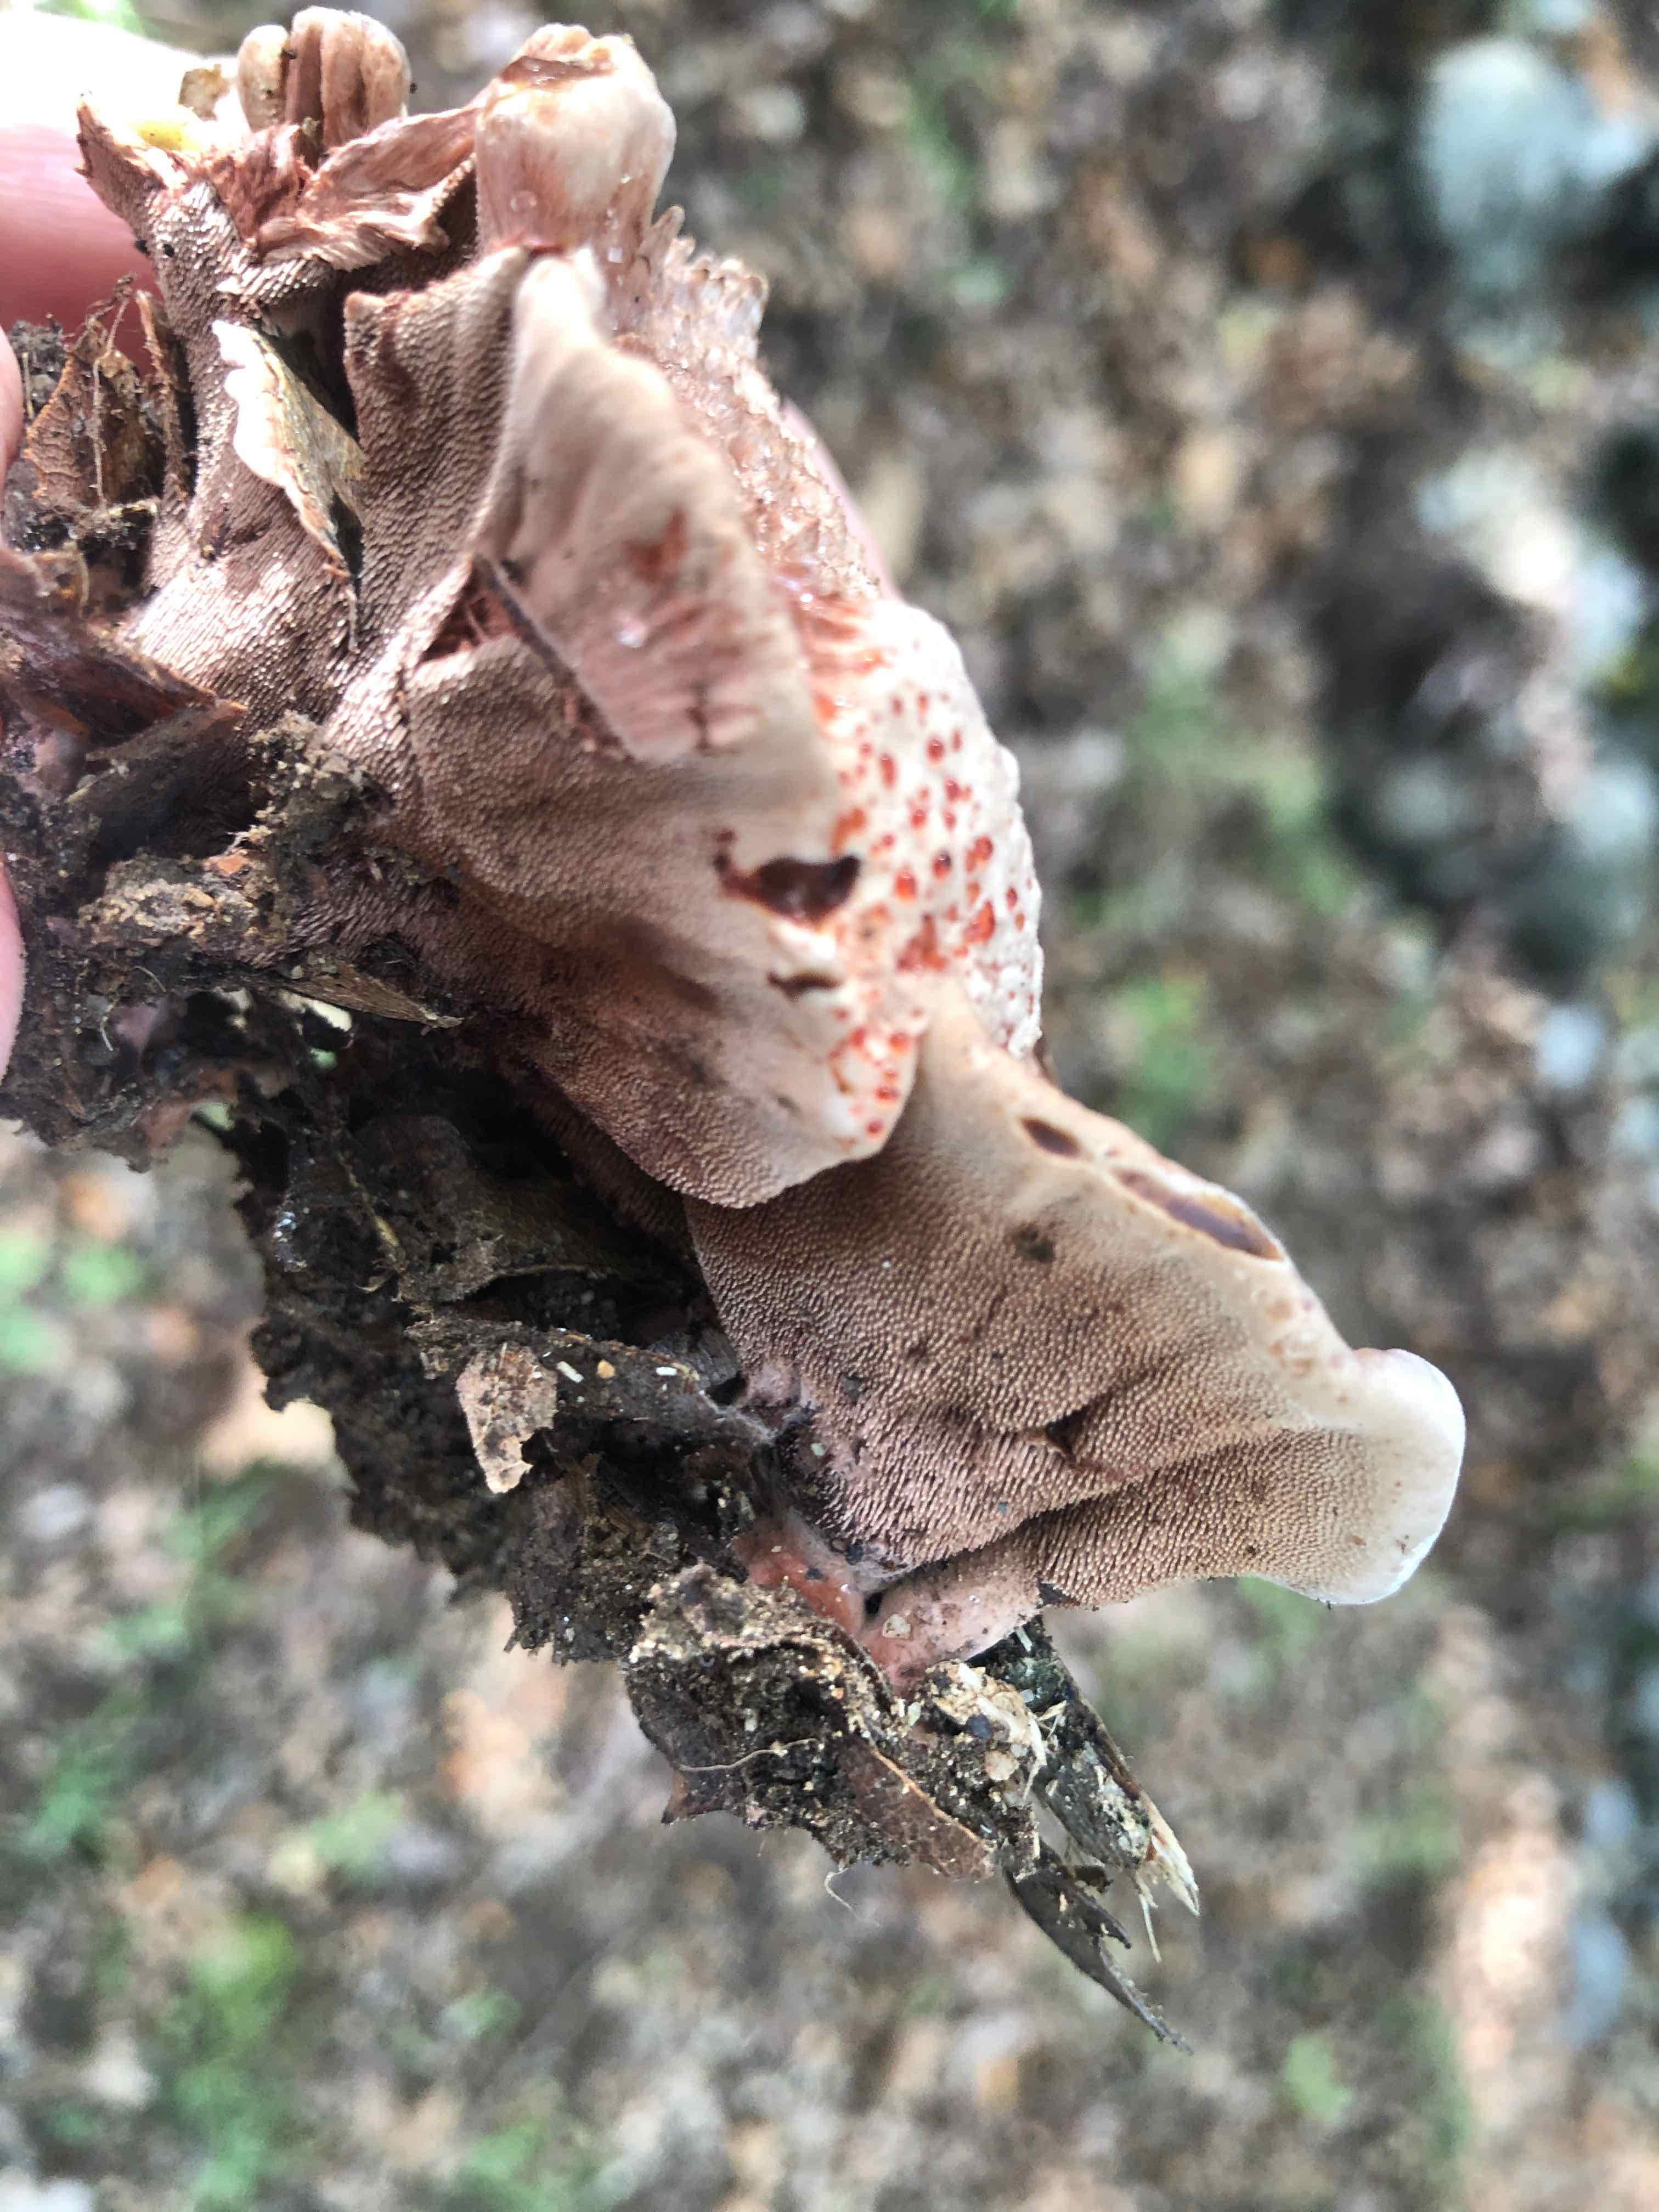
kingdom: Fungi
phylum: Basidiomycota
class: Agaricomycetes
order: Thelephorales
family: Bankeraceae
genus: Hydnellum
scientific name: Hydnellum
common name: korkpigsvamp
